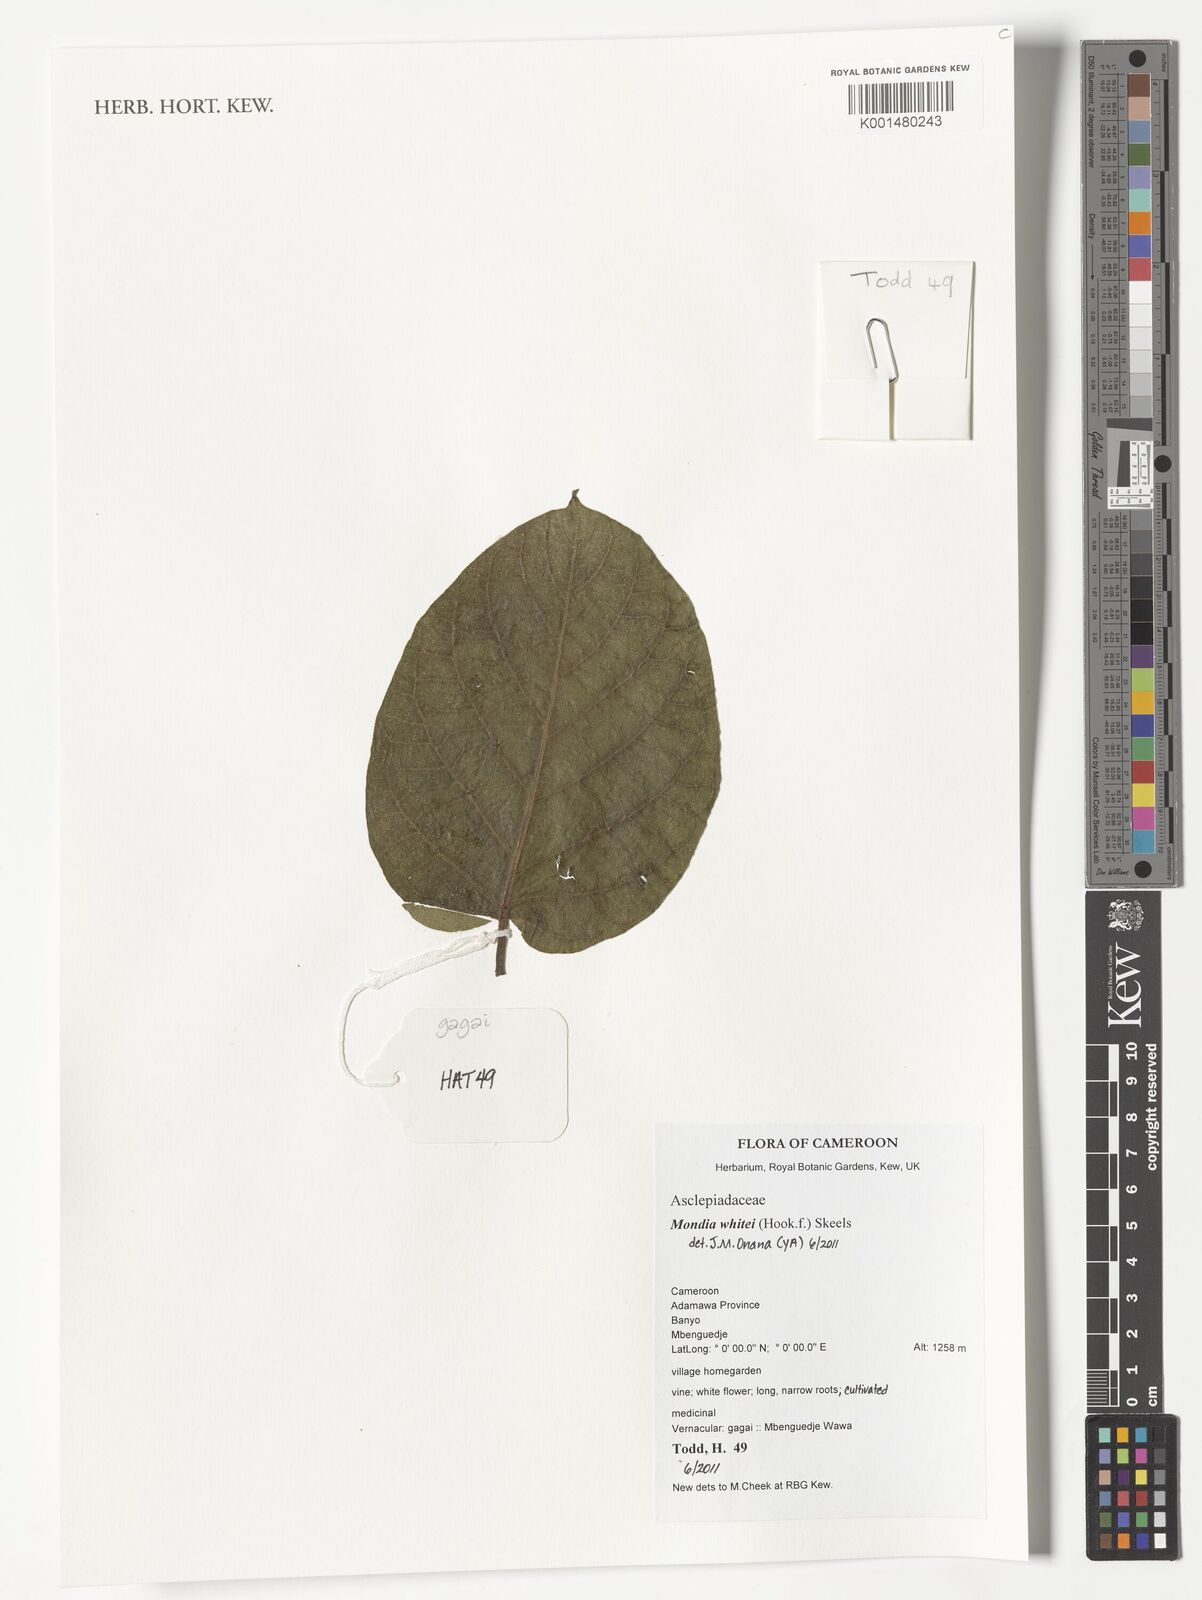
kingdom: Plantae
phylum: Tracheophyta
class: Magnoliopsida
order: Gentianales
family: Apocynaceae
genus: Mondia
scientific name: Mondia whitei
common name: Mondia
